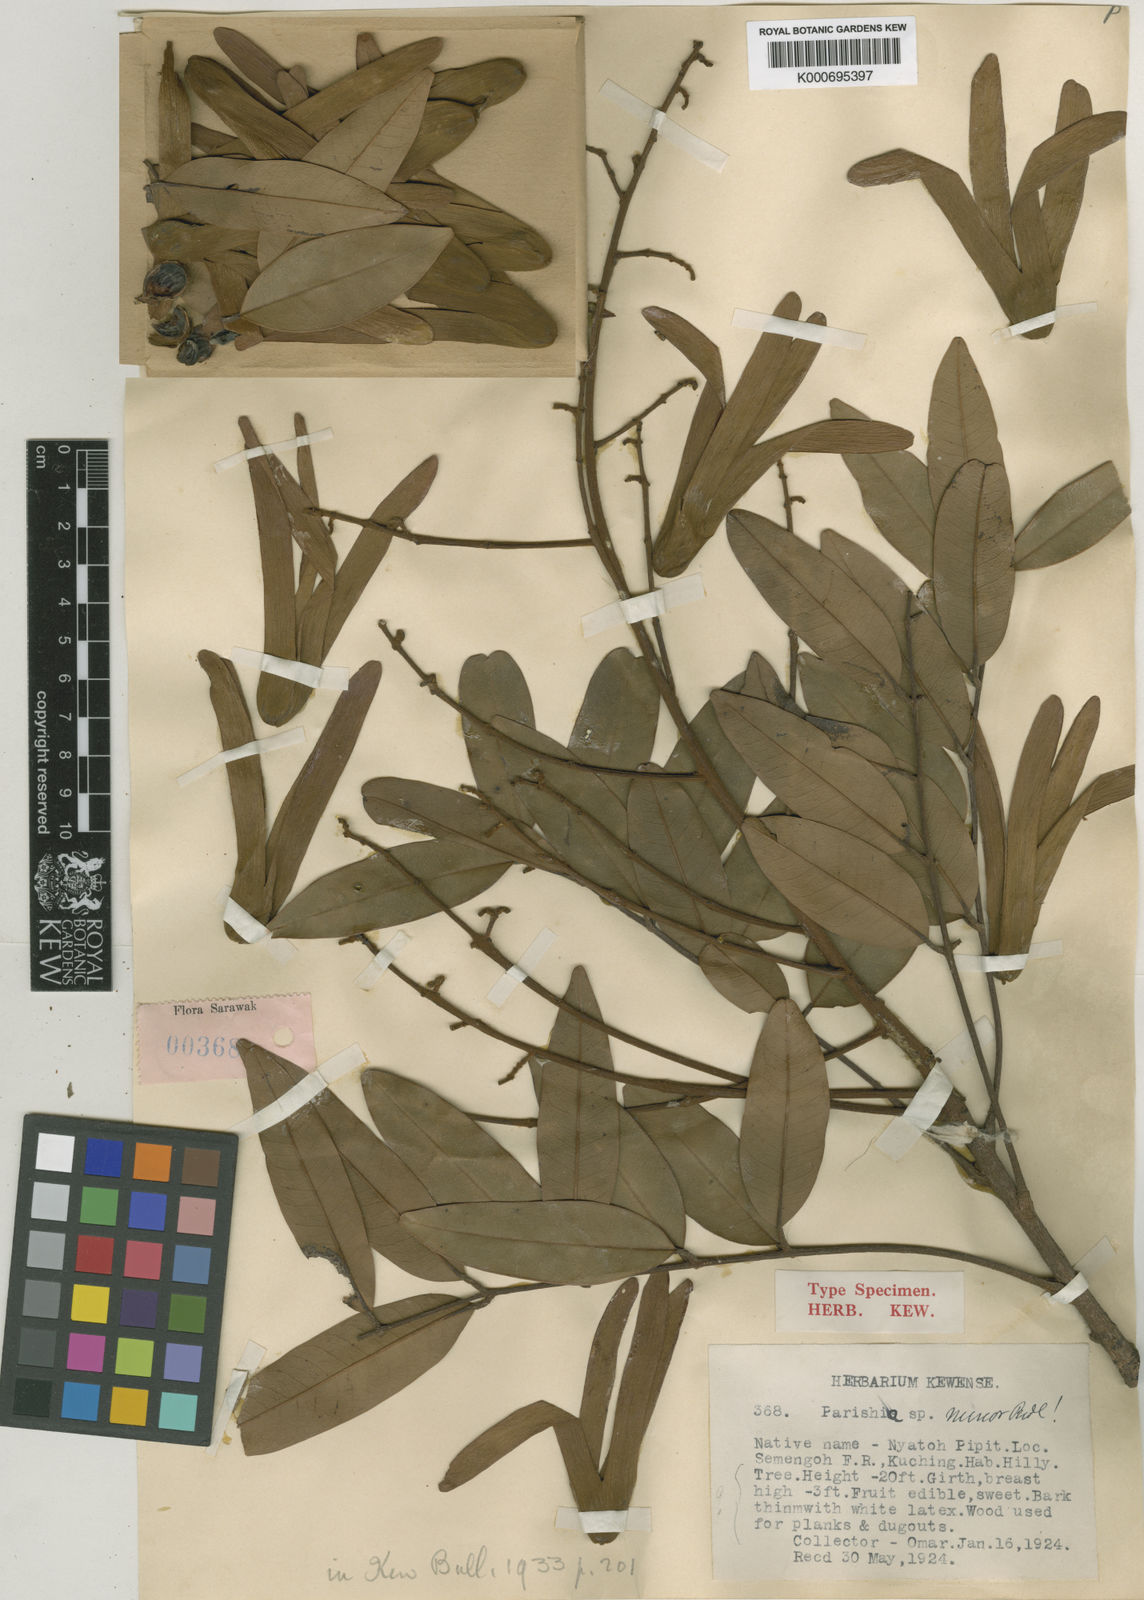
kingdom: Plantae
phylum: Tracheophyta
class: Magnoliopsida
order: Sapindales
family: Anacardiaceae
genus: Parishia
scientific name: Parishia maingayi
